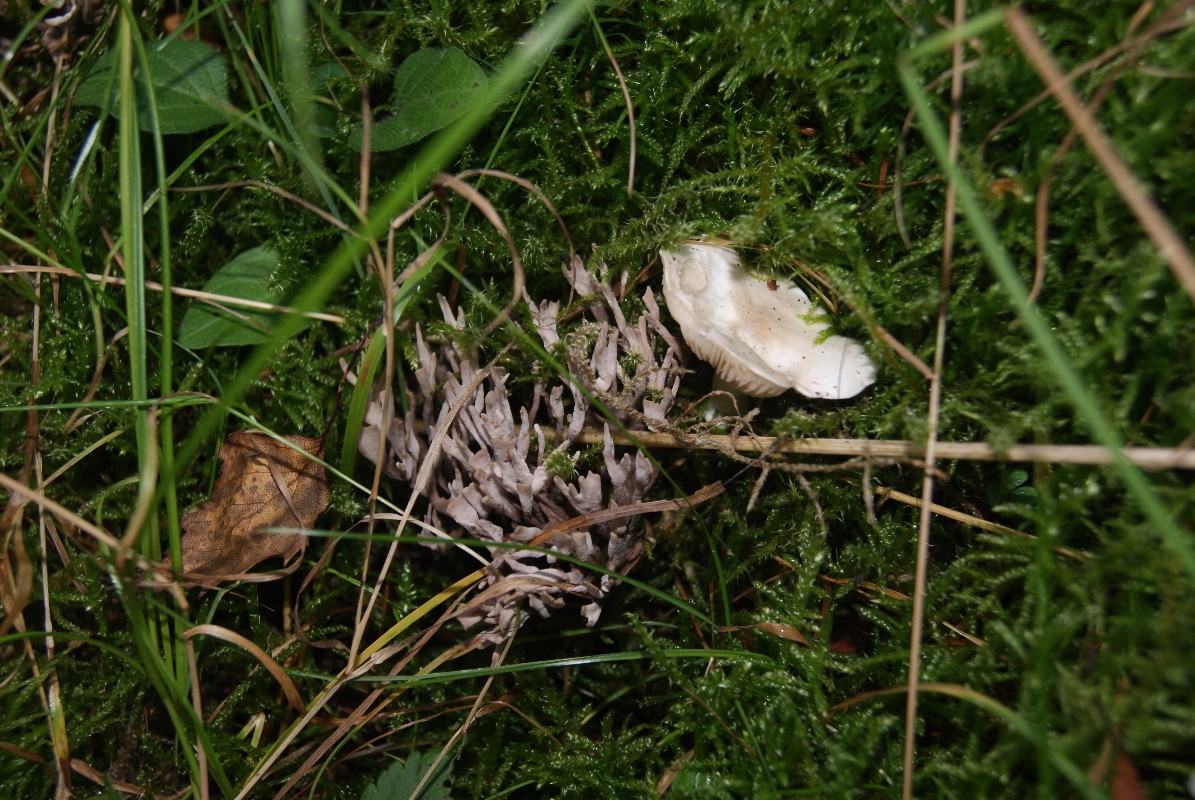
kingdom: Fungi
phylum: Basidiomycota
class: Agaricomycetes
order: Thelephorales
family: Thelephoraceae
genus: Thelephora
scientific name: Thelephora palmata
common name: grenet frynsesvamp
